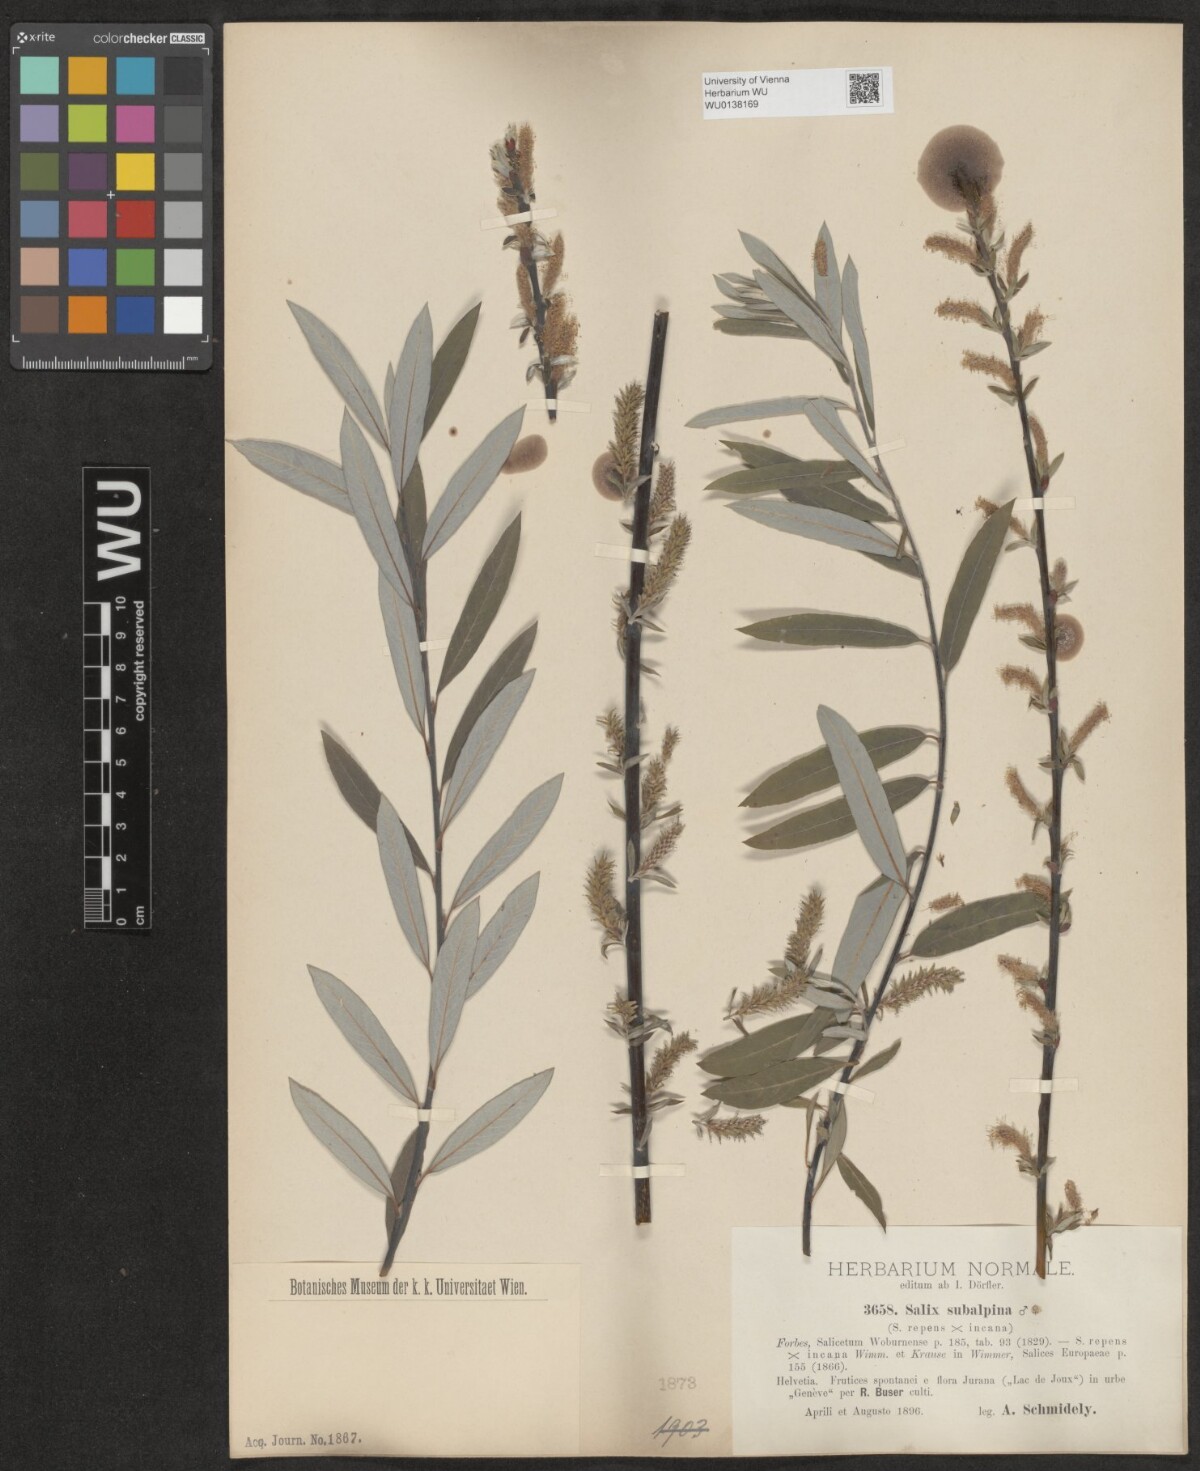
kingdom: Plantae
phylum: Tracheophyta
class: Magnoliopsida
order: Malpighiales
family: Salicaceae
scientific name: Salicaceae
